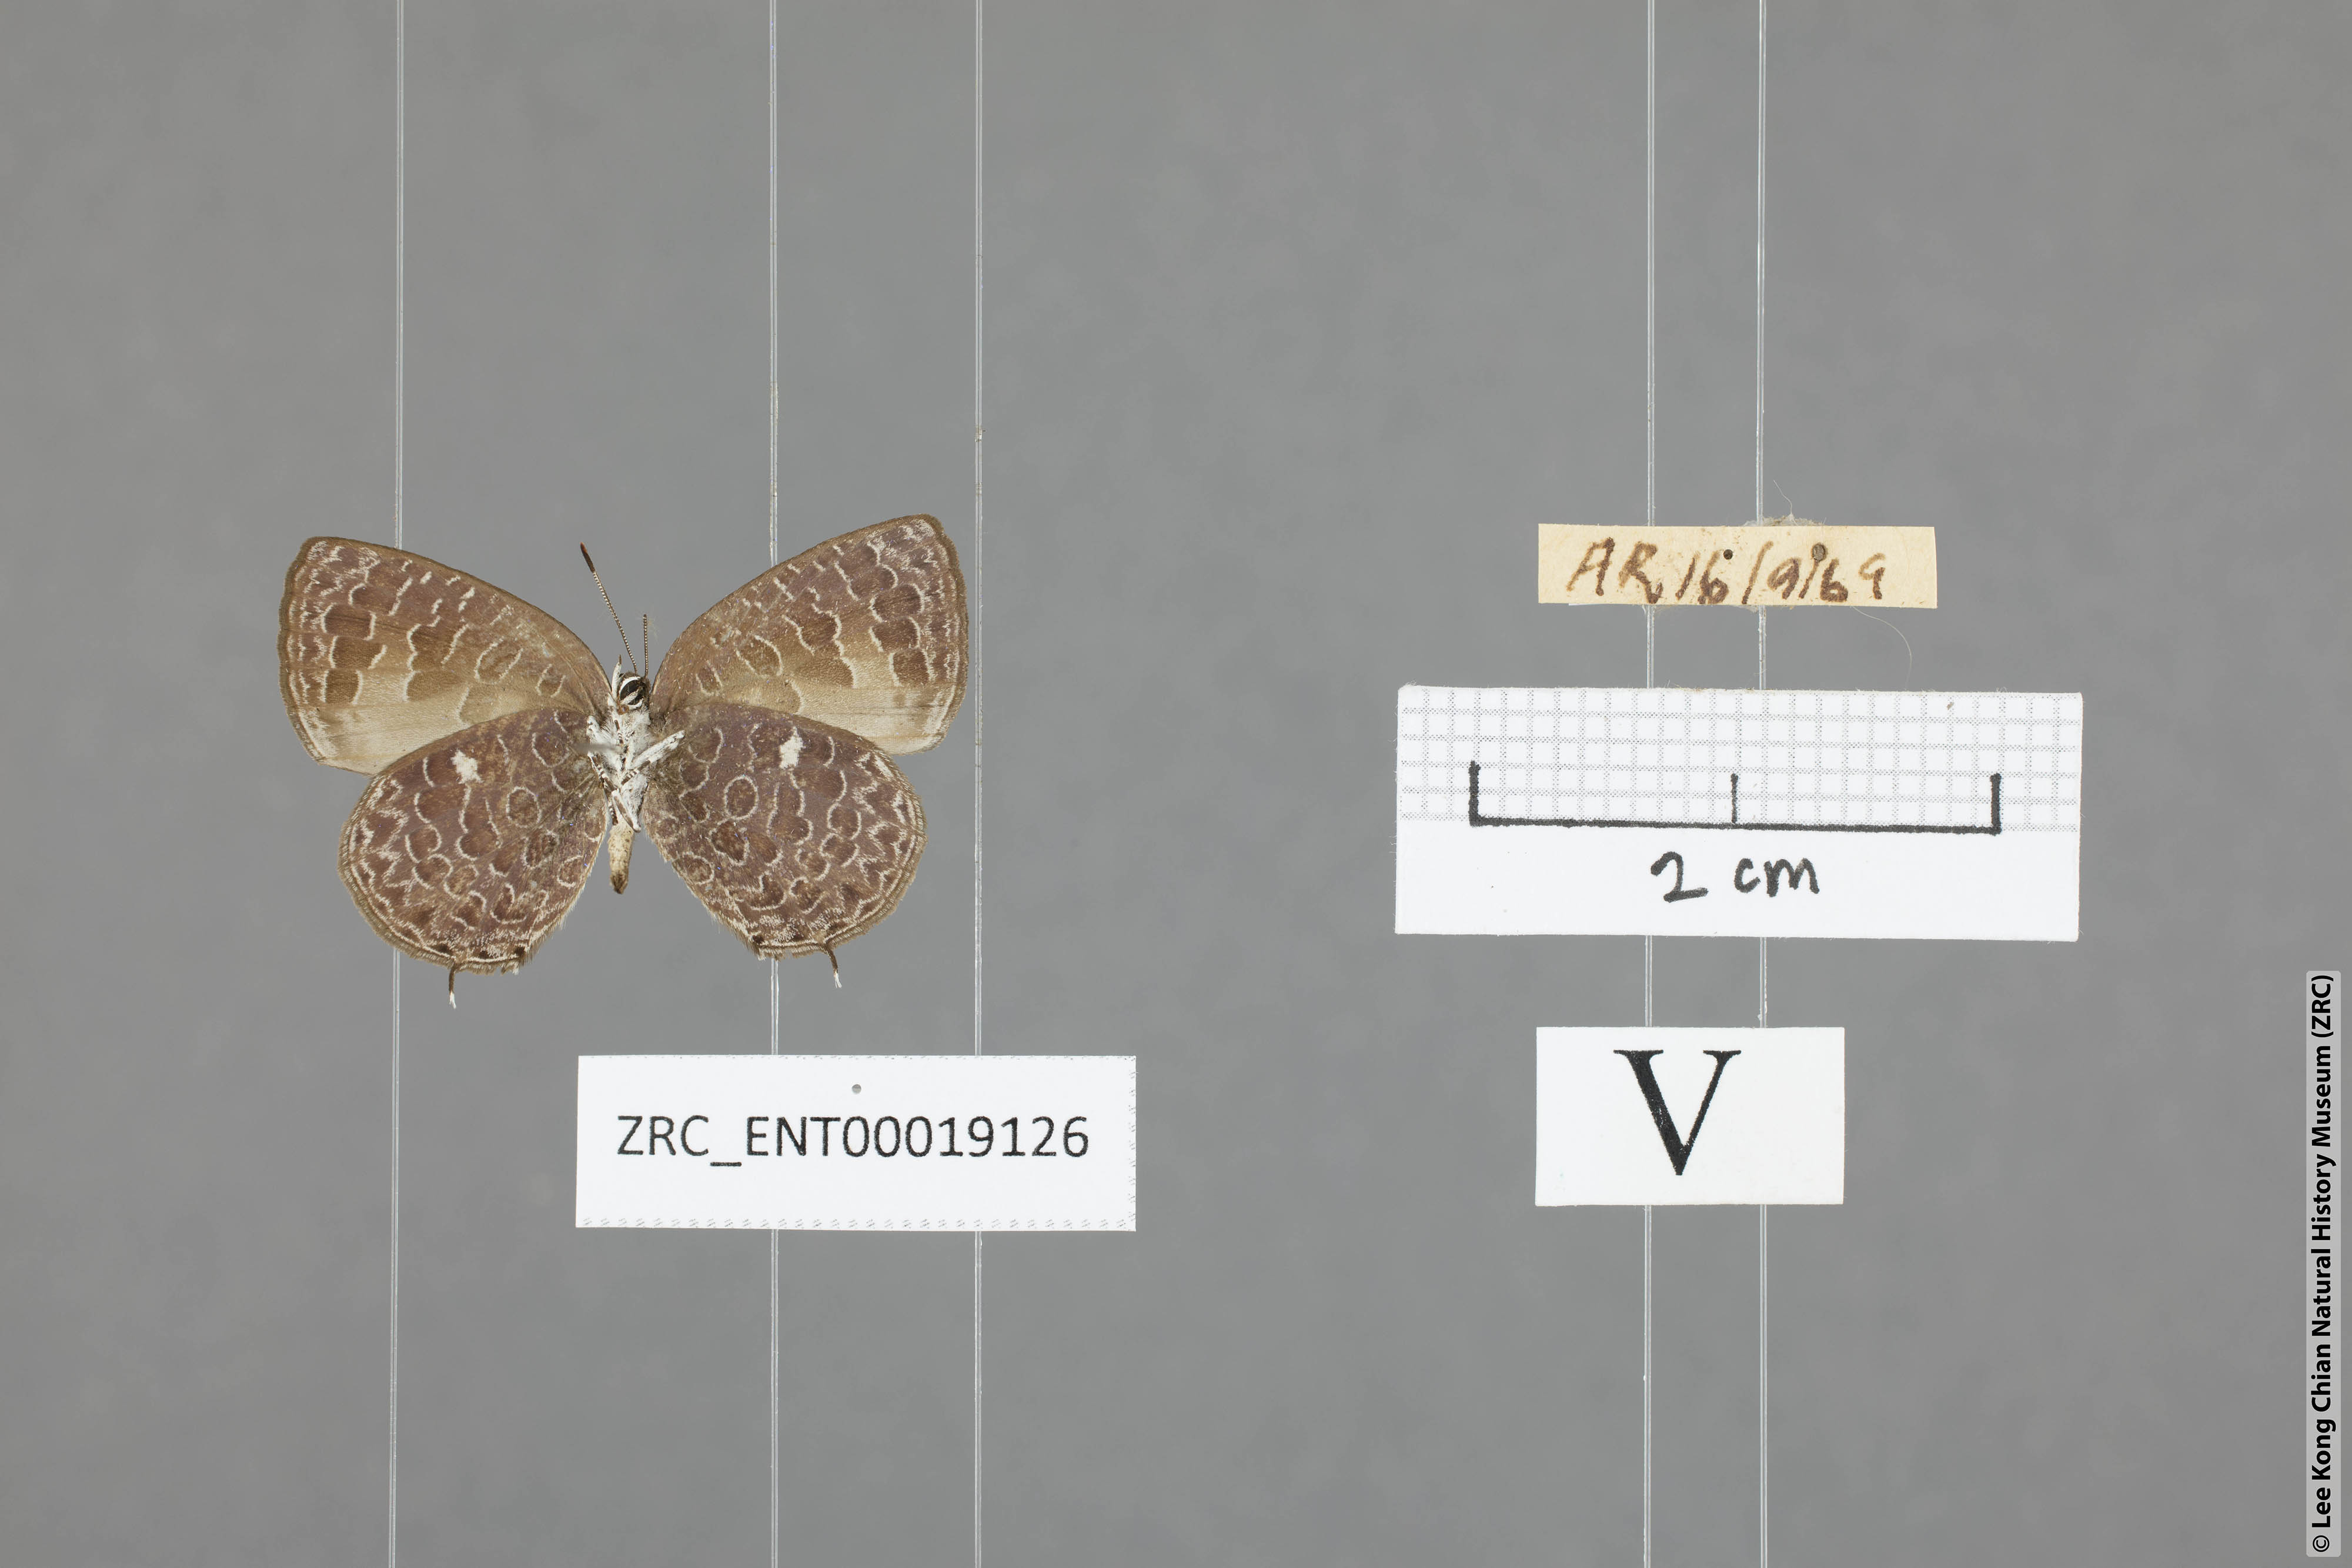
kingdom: Animalia
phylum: Arthropoda
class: Insecta
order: Lepidoptera
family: Lycaenidae
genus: Arhopala
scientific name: Arhopala ammonides
